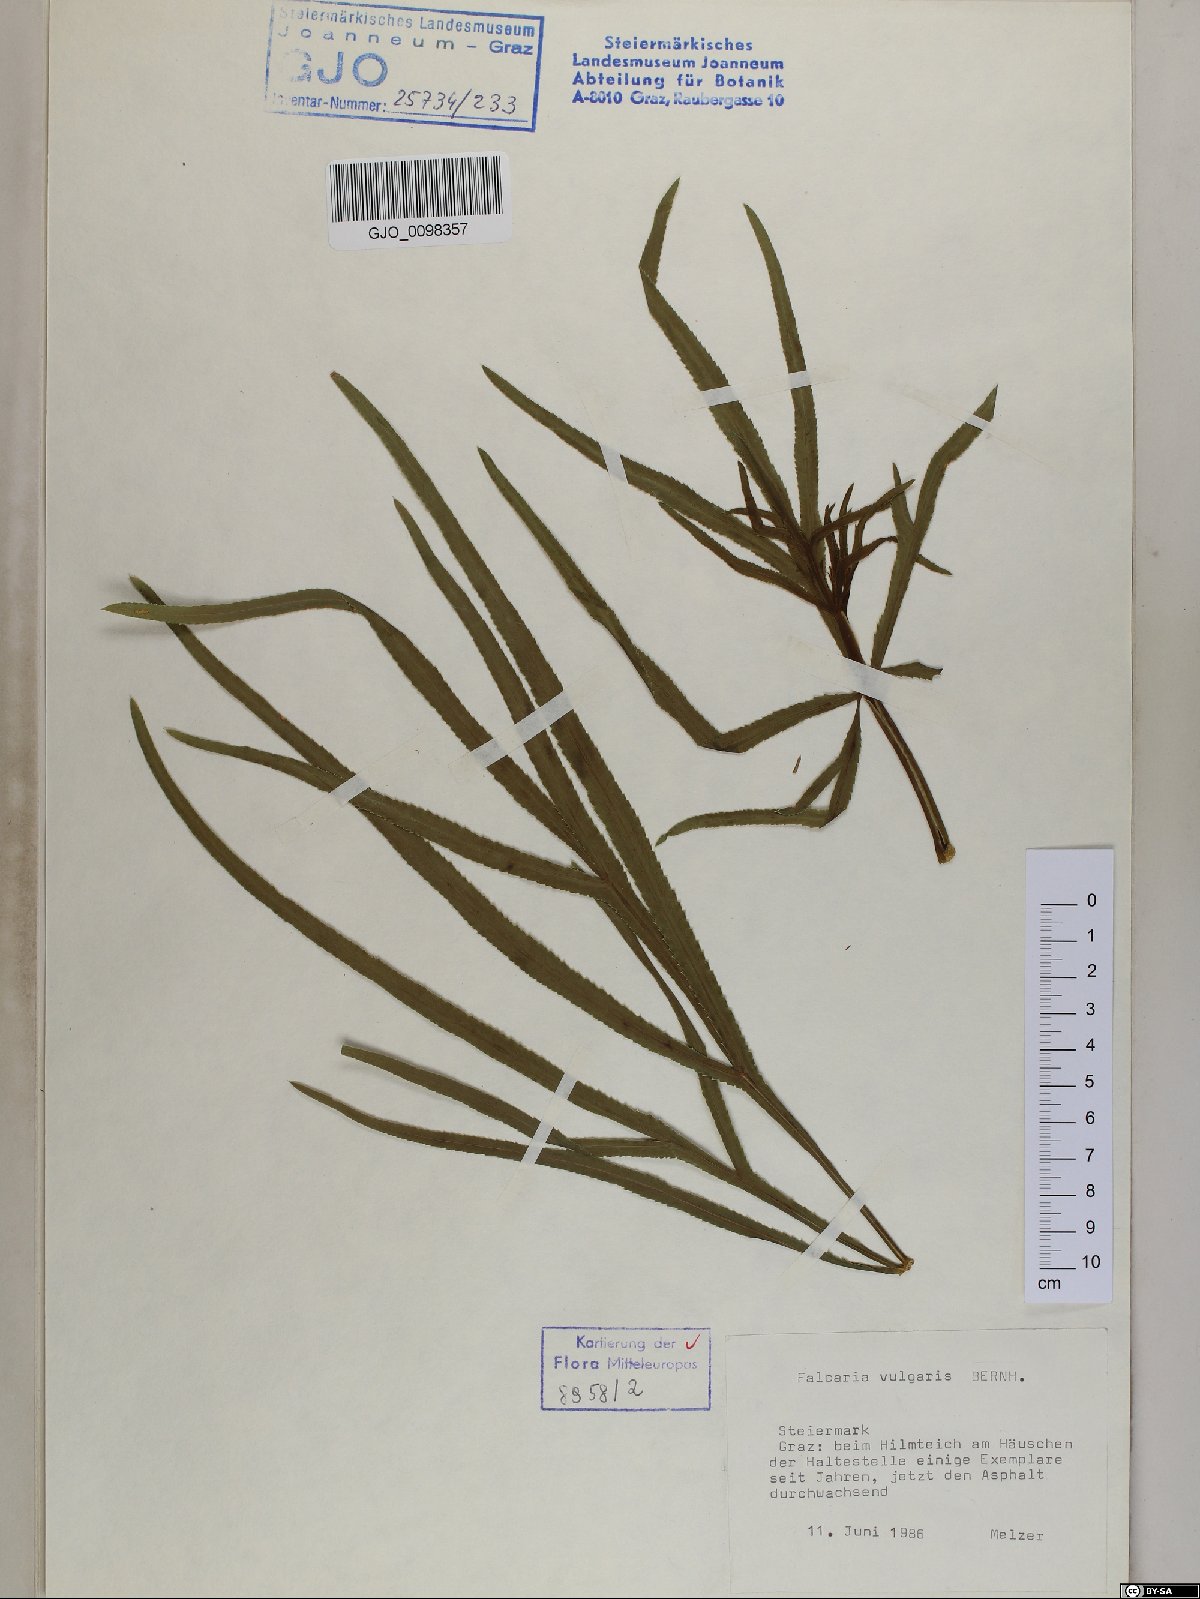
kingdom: Plantae
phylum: Tracheophyta
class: Magnoliopsida
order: Apiales
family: Apiaceae
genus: Falcaria
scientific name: Falcaria vulgaris
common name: Longleaf
